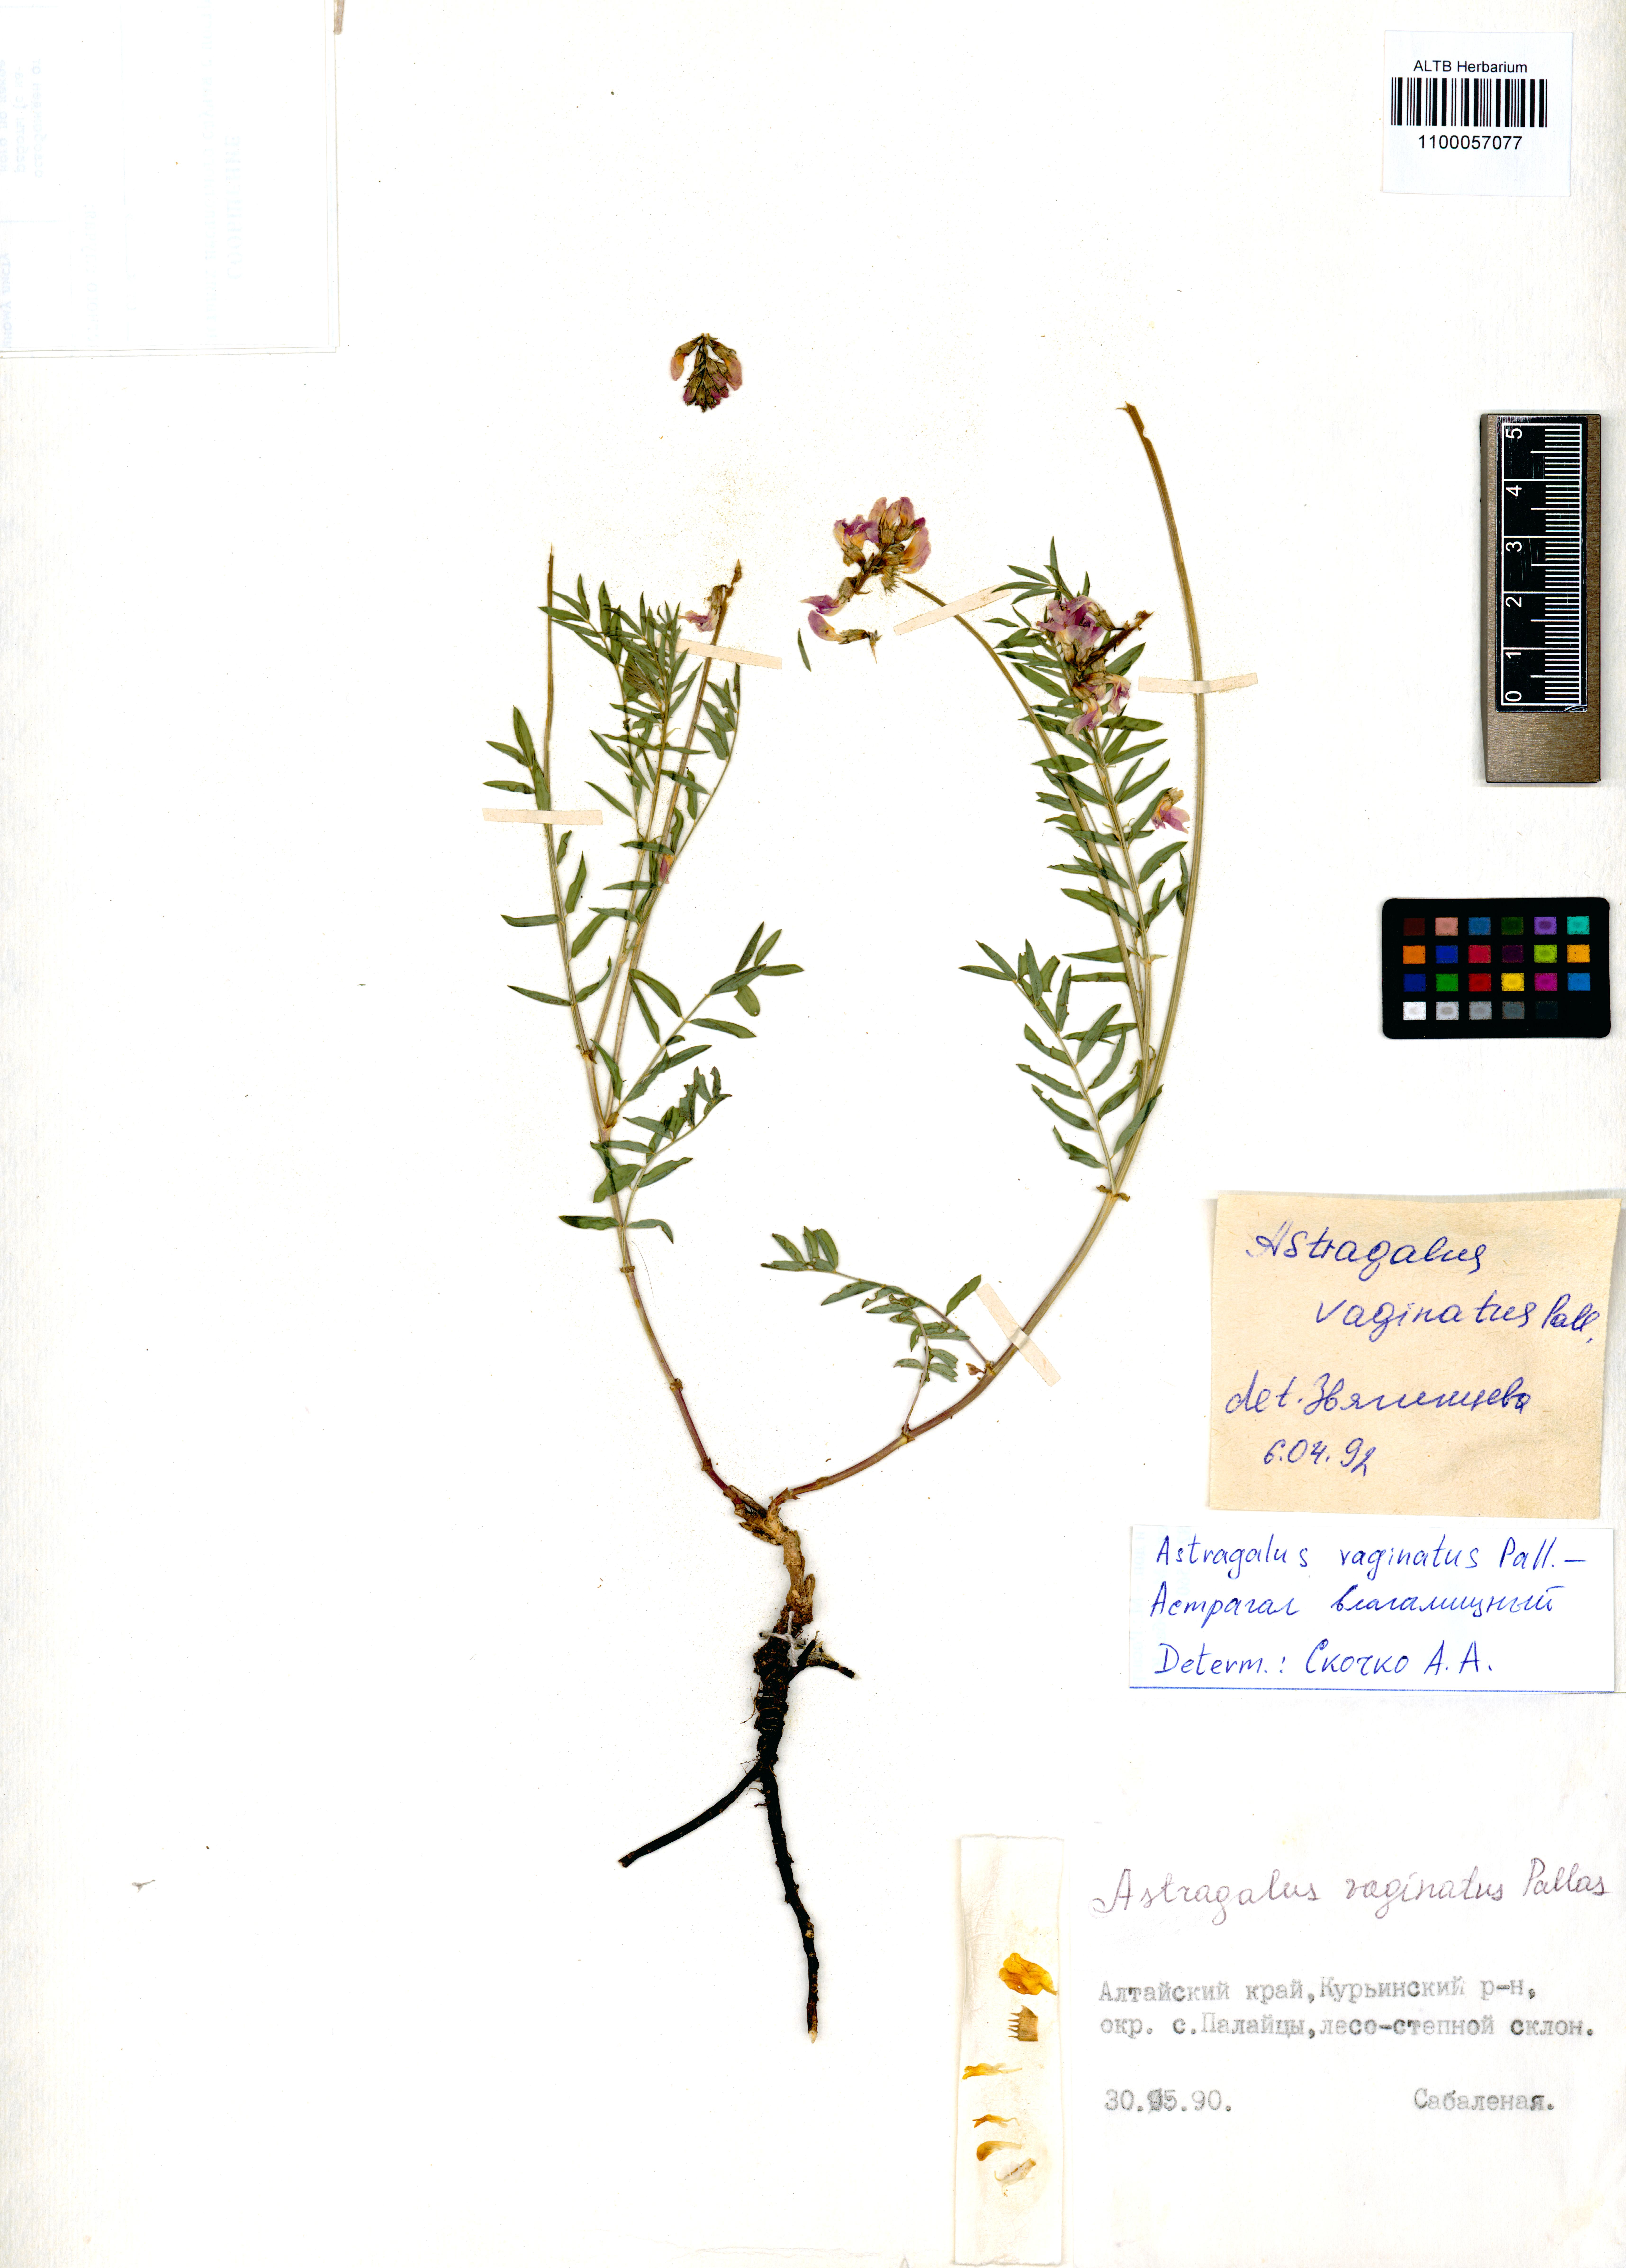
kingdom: Plantae
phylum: Tracheophyta
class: Magnoliopsida
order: Fabales
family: Fabaceae
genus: Astragalus
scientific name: Astragalus vaginatus
